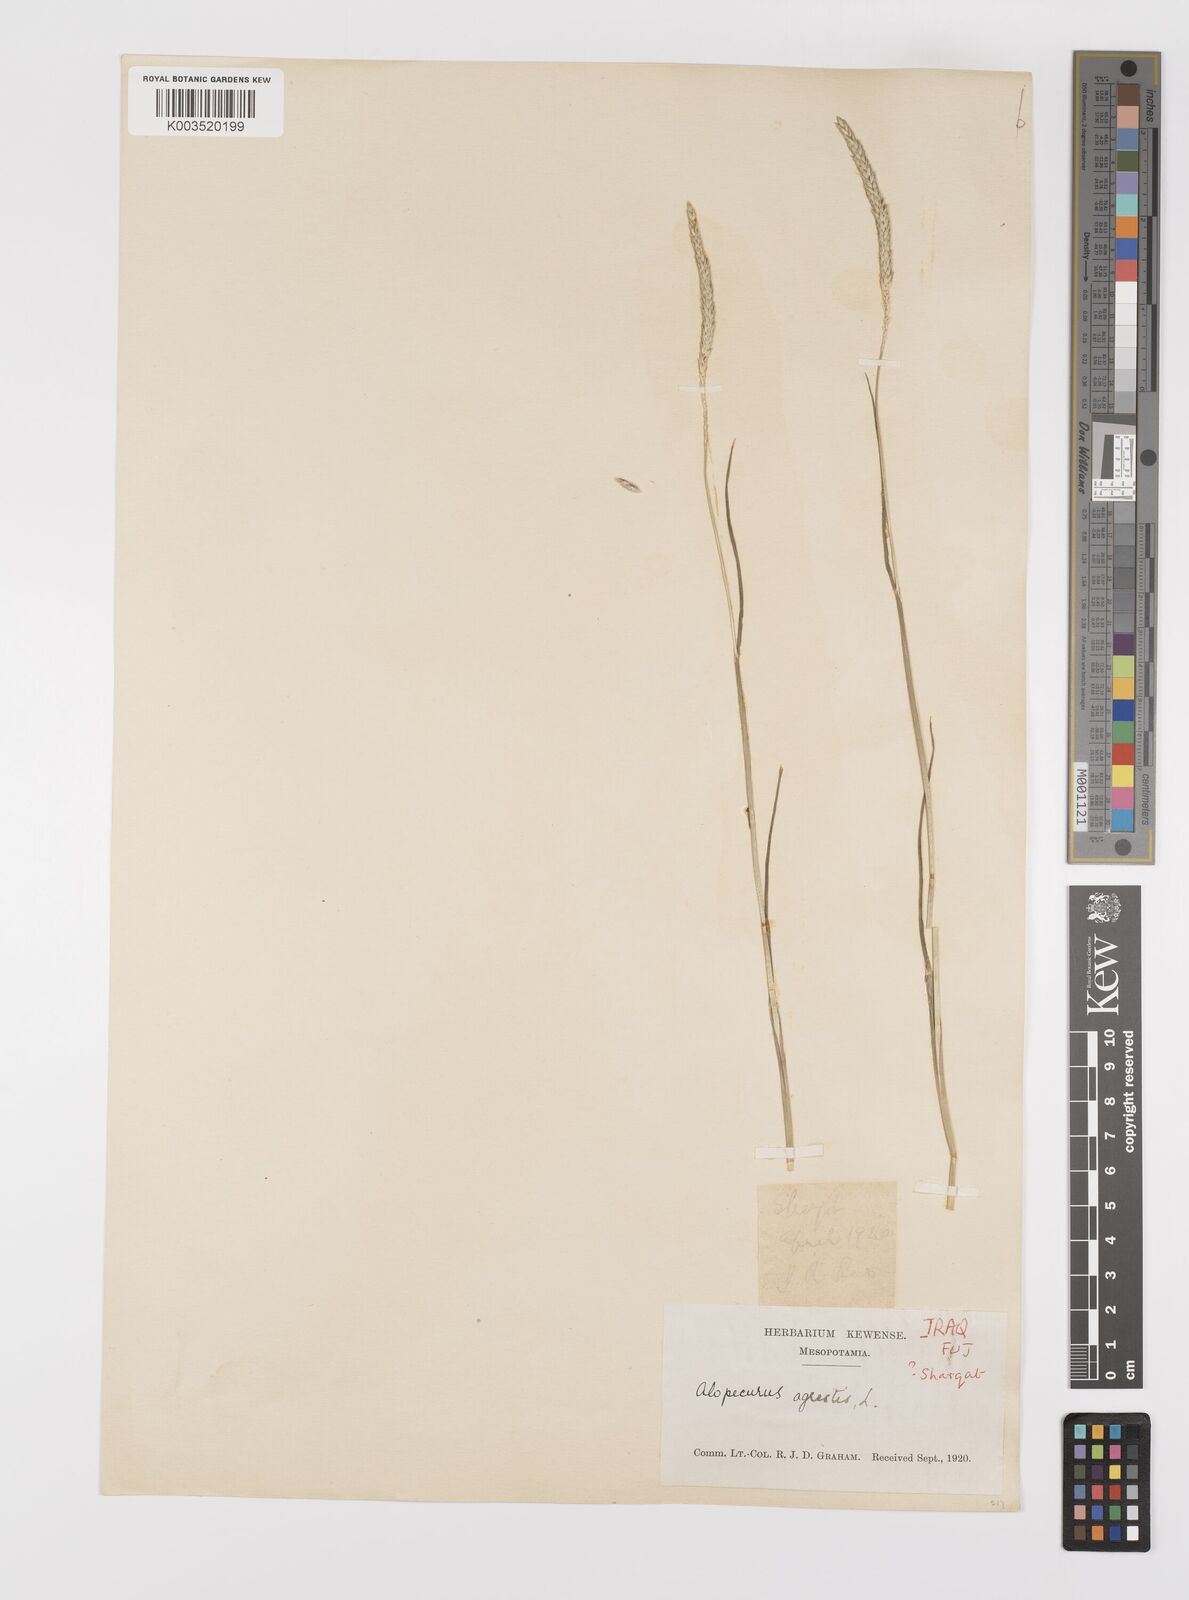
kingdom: Plantae
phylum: Tracheophyta
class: Liliopsida
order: Poales
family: Poaceae
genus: Alopecurus
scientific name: Alopecurus myosuroides
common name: Black-grass
